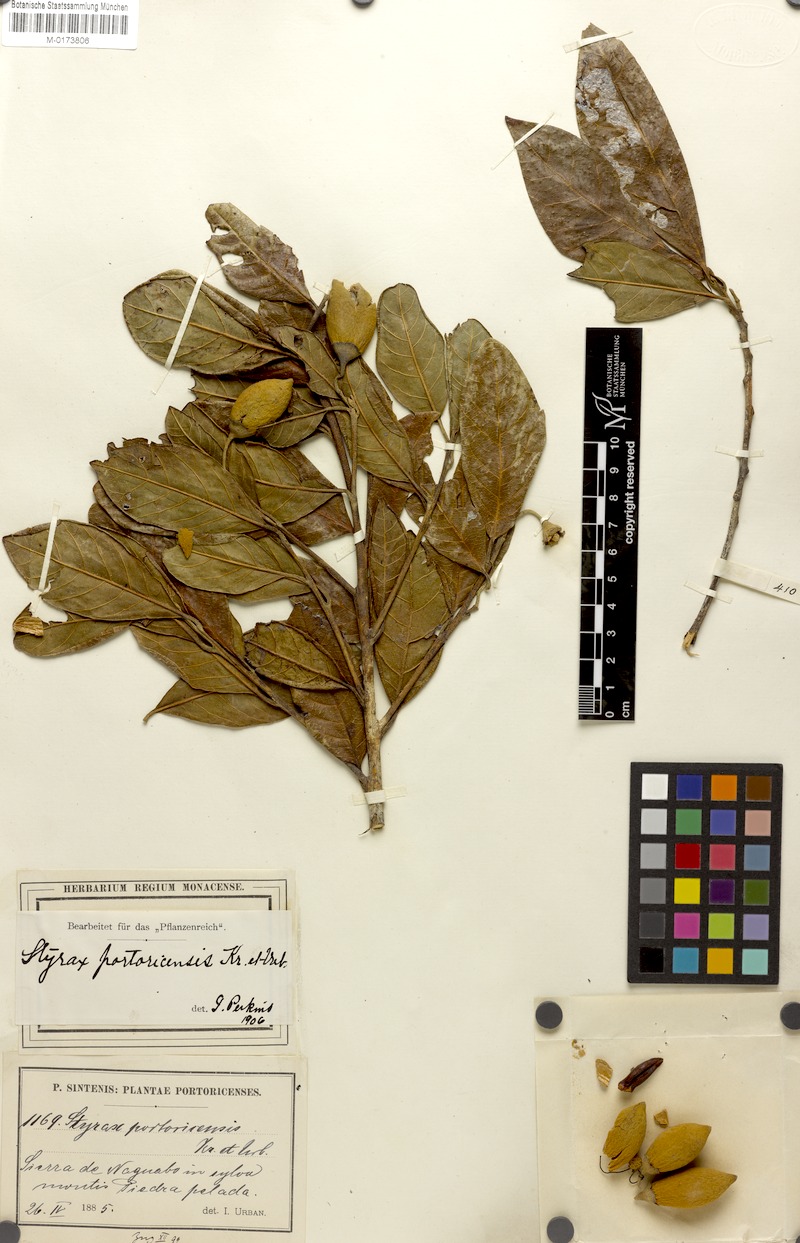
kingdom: Plantae
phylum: Tracheophyta
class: Magnoliopsida
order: Ericales
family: Styracaceae
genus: Styrax
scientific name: Styrax portoricensis
